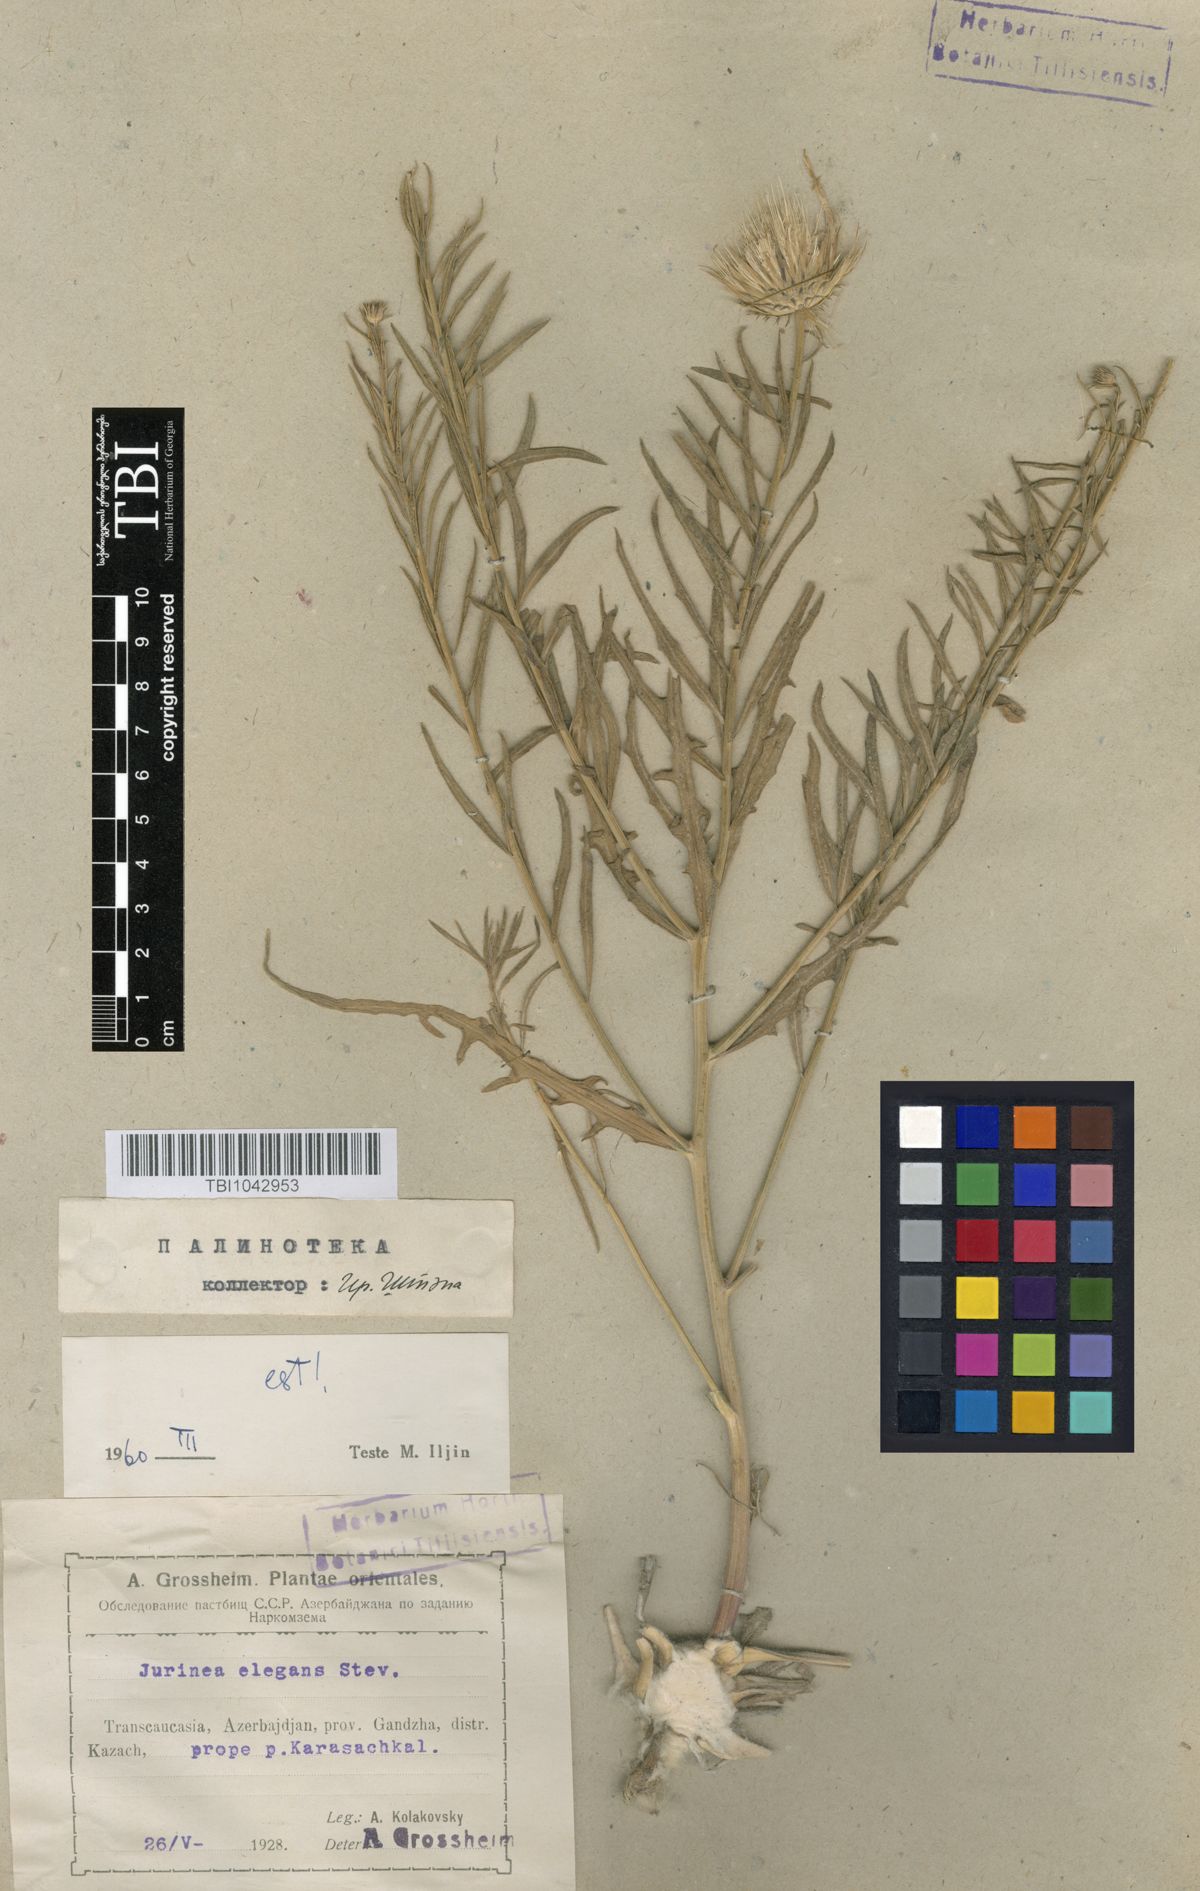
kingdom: Plantae
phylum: Tracheophyta
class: Magnoliopsida
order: Asterales
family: Asteraceae
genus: Jurinea
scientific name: Jurinea elegans
